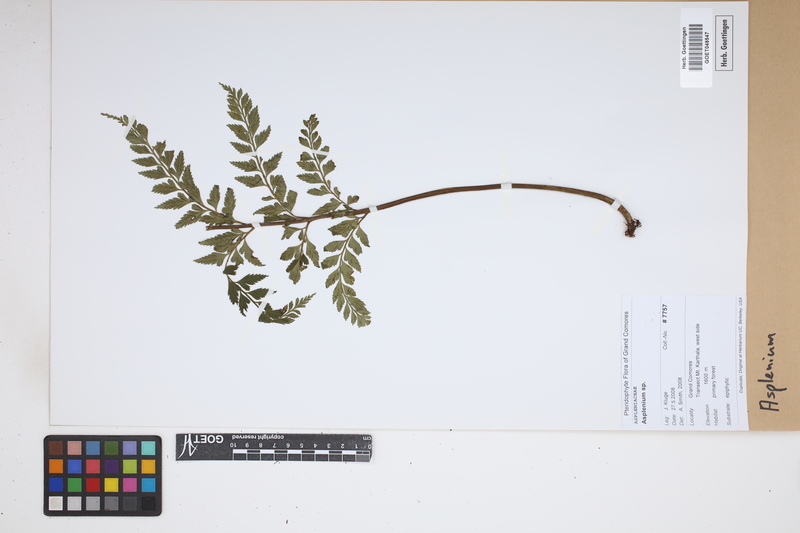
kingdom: Plantae
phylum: Tracheophyta
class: Polypodiopsida
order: Polypodiales
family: Aspleniaceae
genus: Asplenium
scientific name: Asplenium
